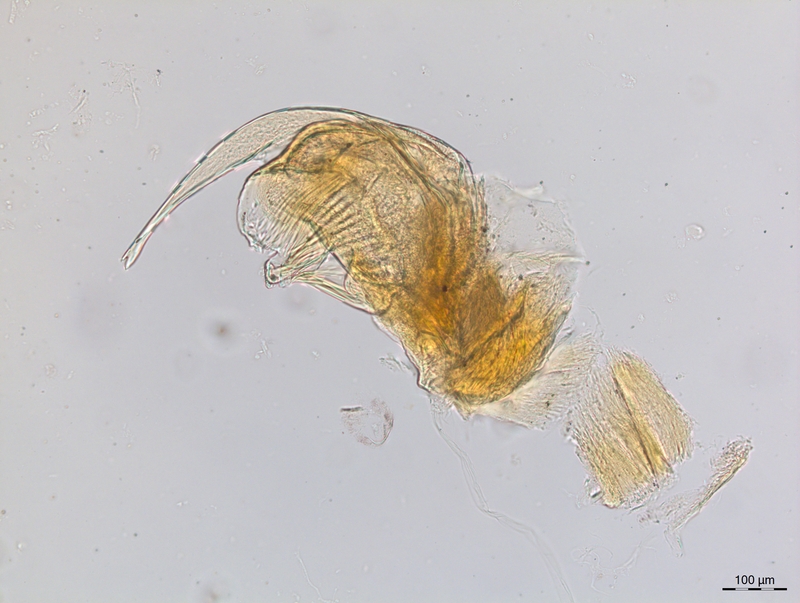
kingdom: Animalia
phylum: Arthropoda
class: Diplopoda
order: Chordeumatida
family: Craspedosomatidae
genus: Craspedosoma
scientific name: Craspedosoma transsilvanicum
